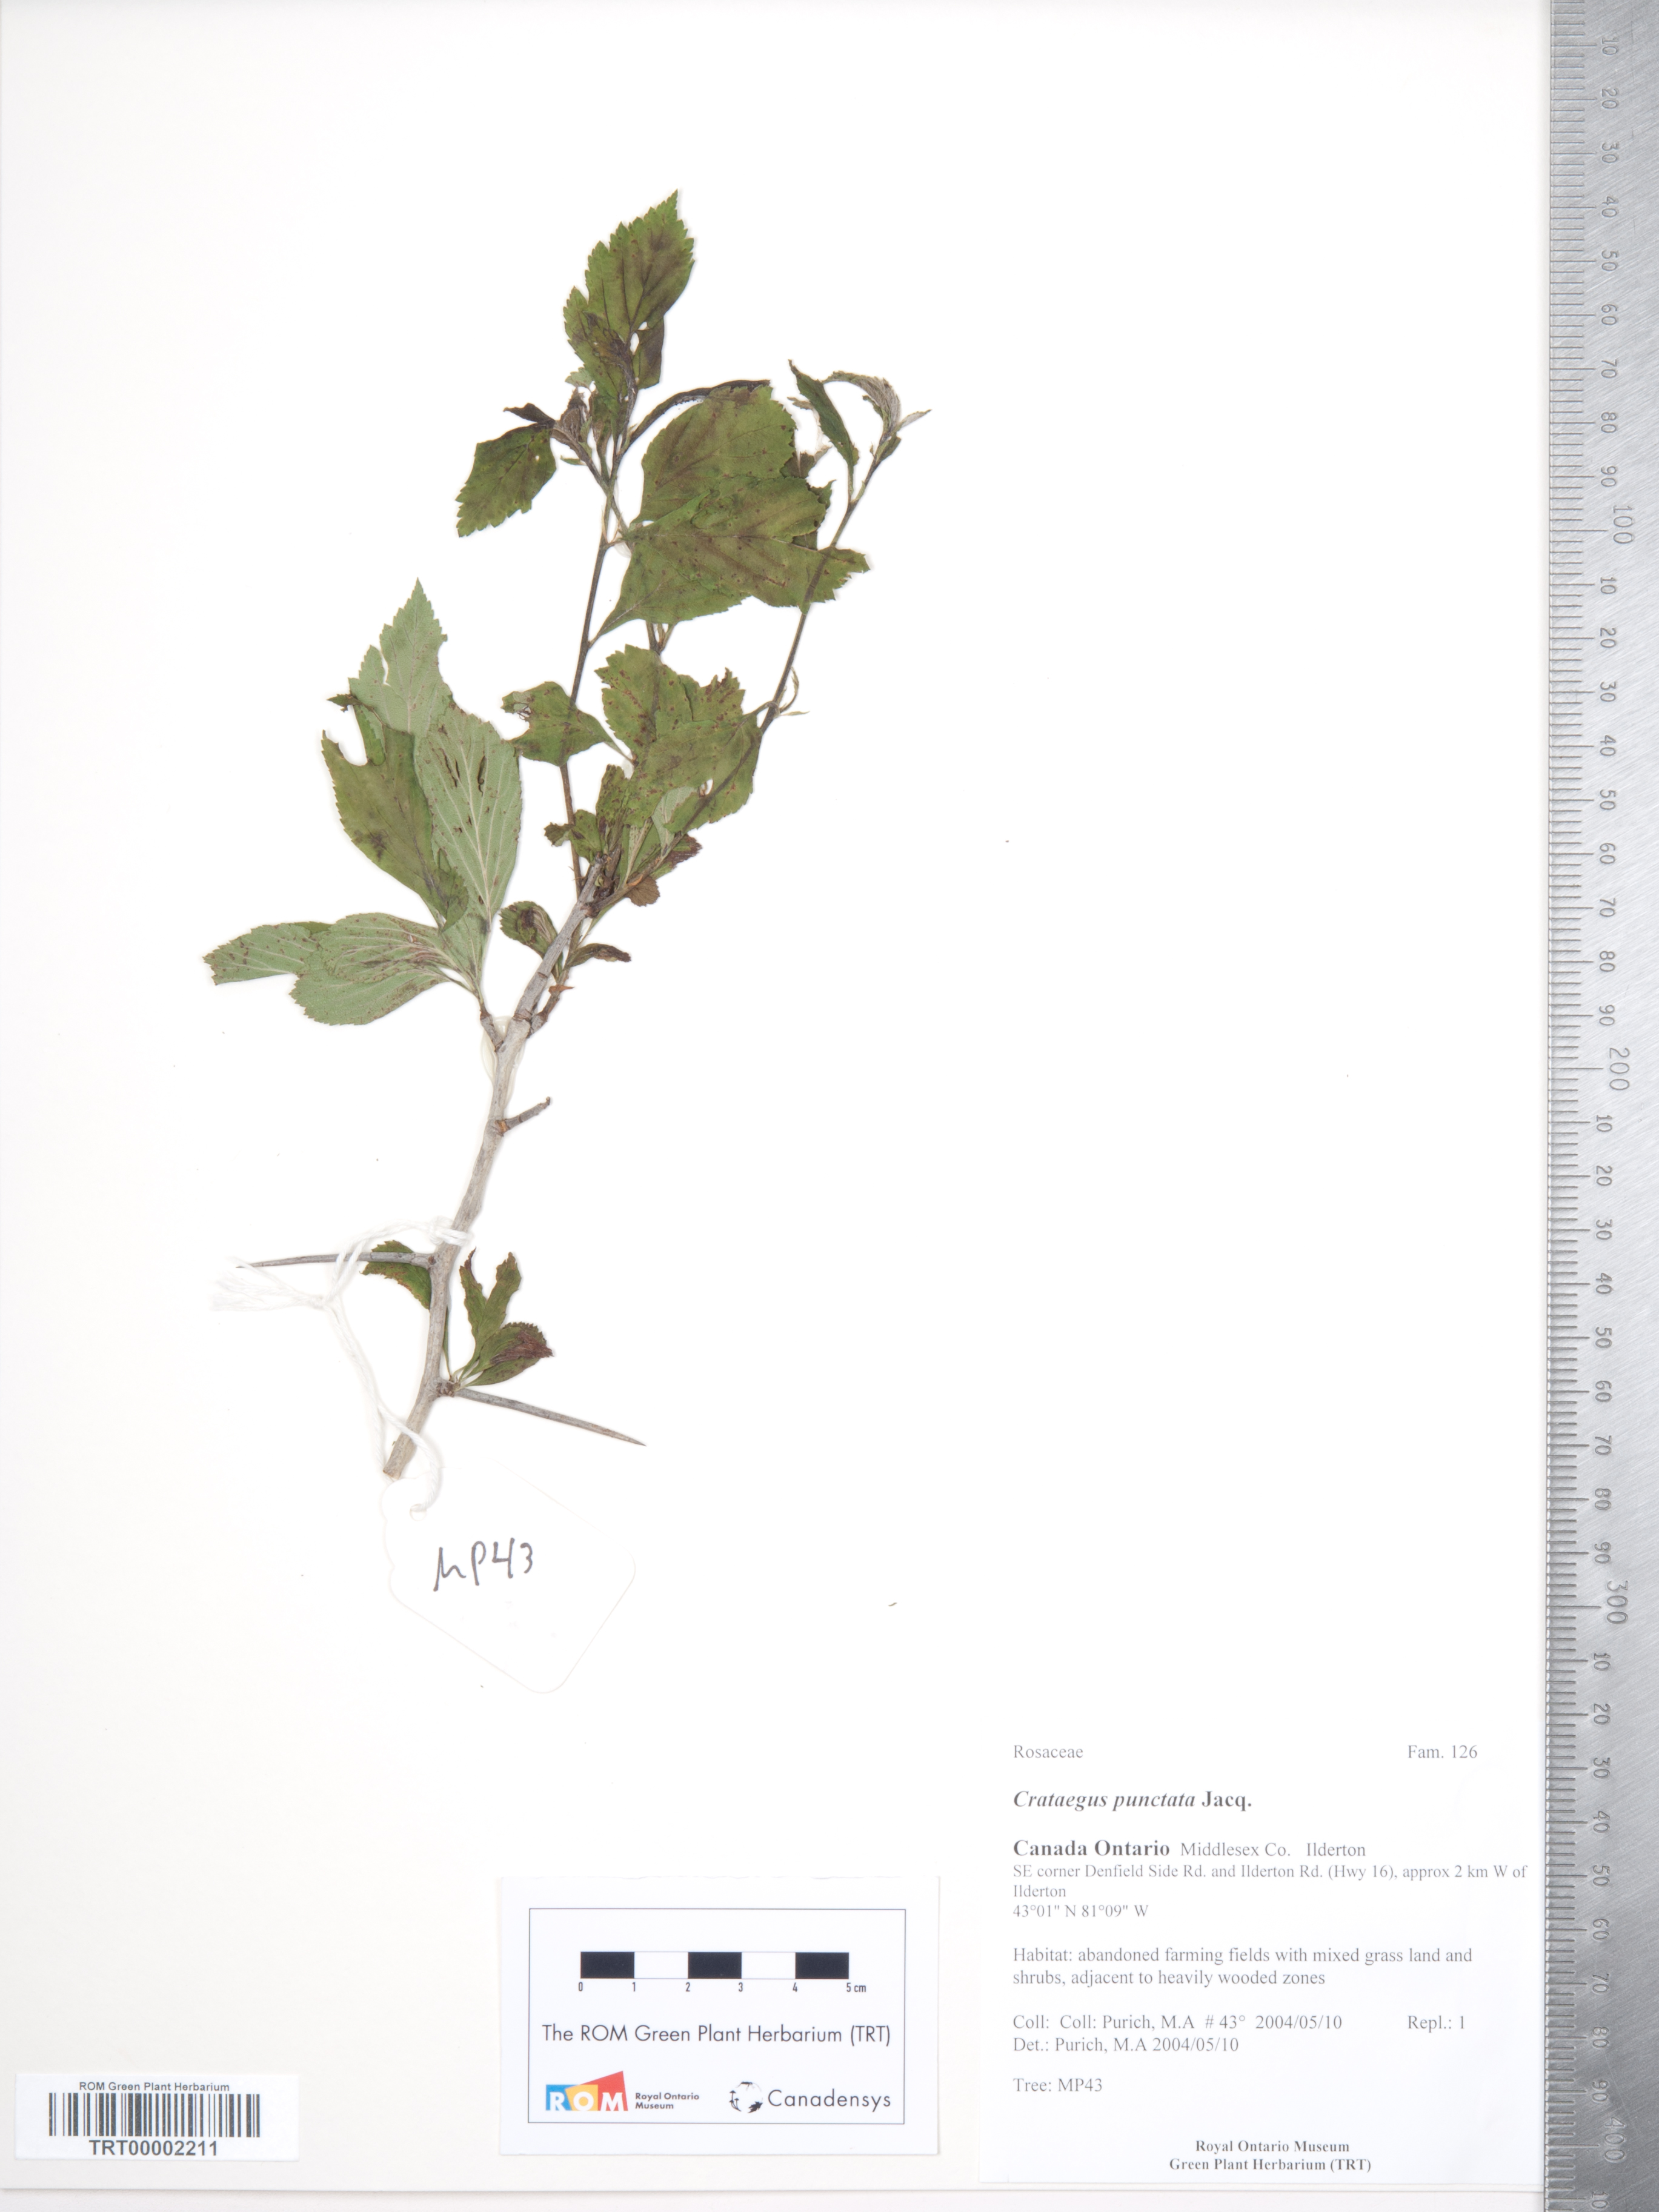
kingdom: Plantae
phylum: Tracheophyta
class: Magnoliopsida
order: Rosales
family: Rosaceae
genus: Crataegus
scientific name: Crataegus punctata
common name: Dotted hawthorn
